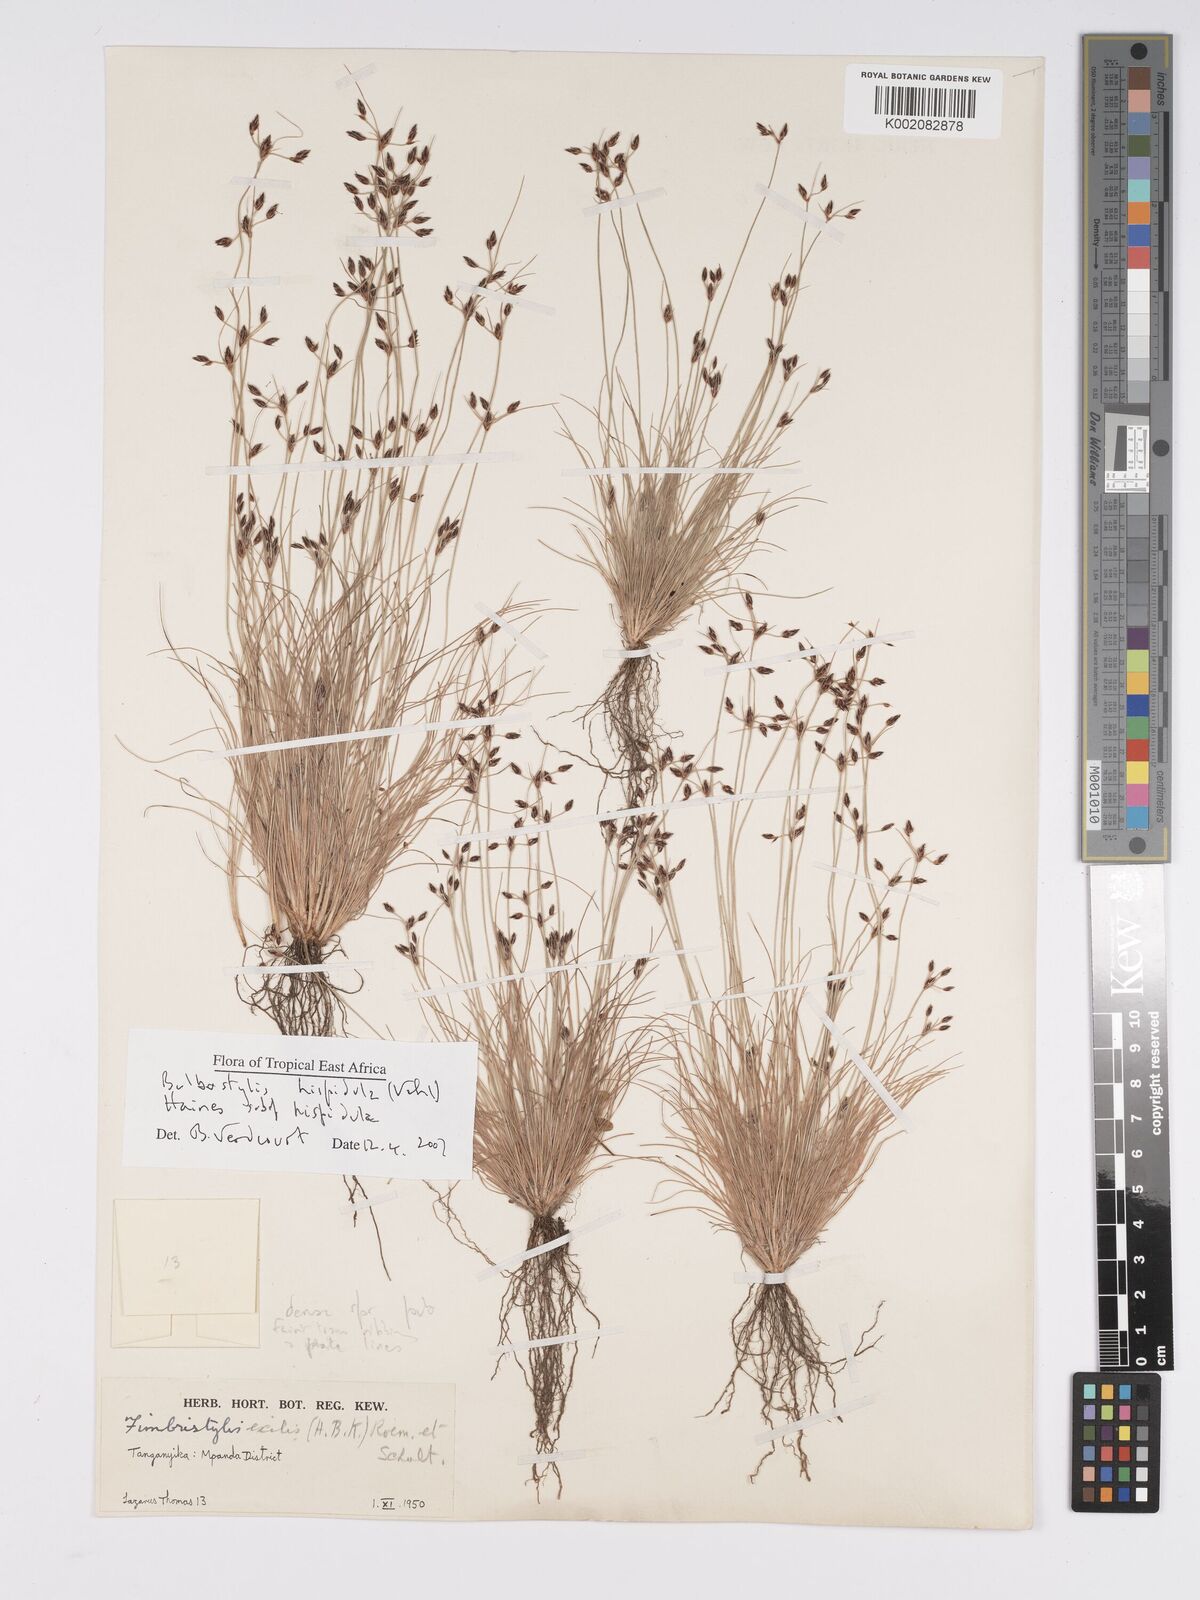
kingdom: Plantae
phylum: Tracheophyta
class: Liliopsida
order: Poales
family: Cyperaceae
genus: Bulbostylis
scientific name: Bulbostylis hispidula
